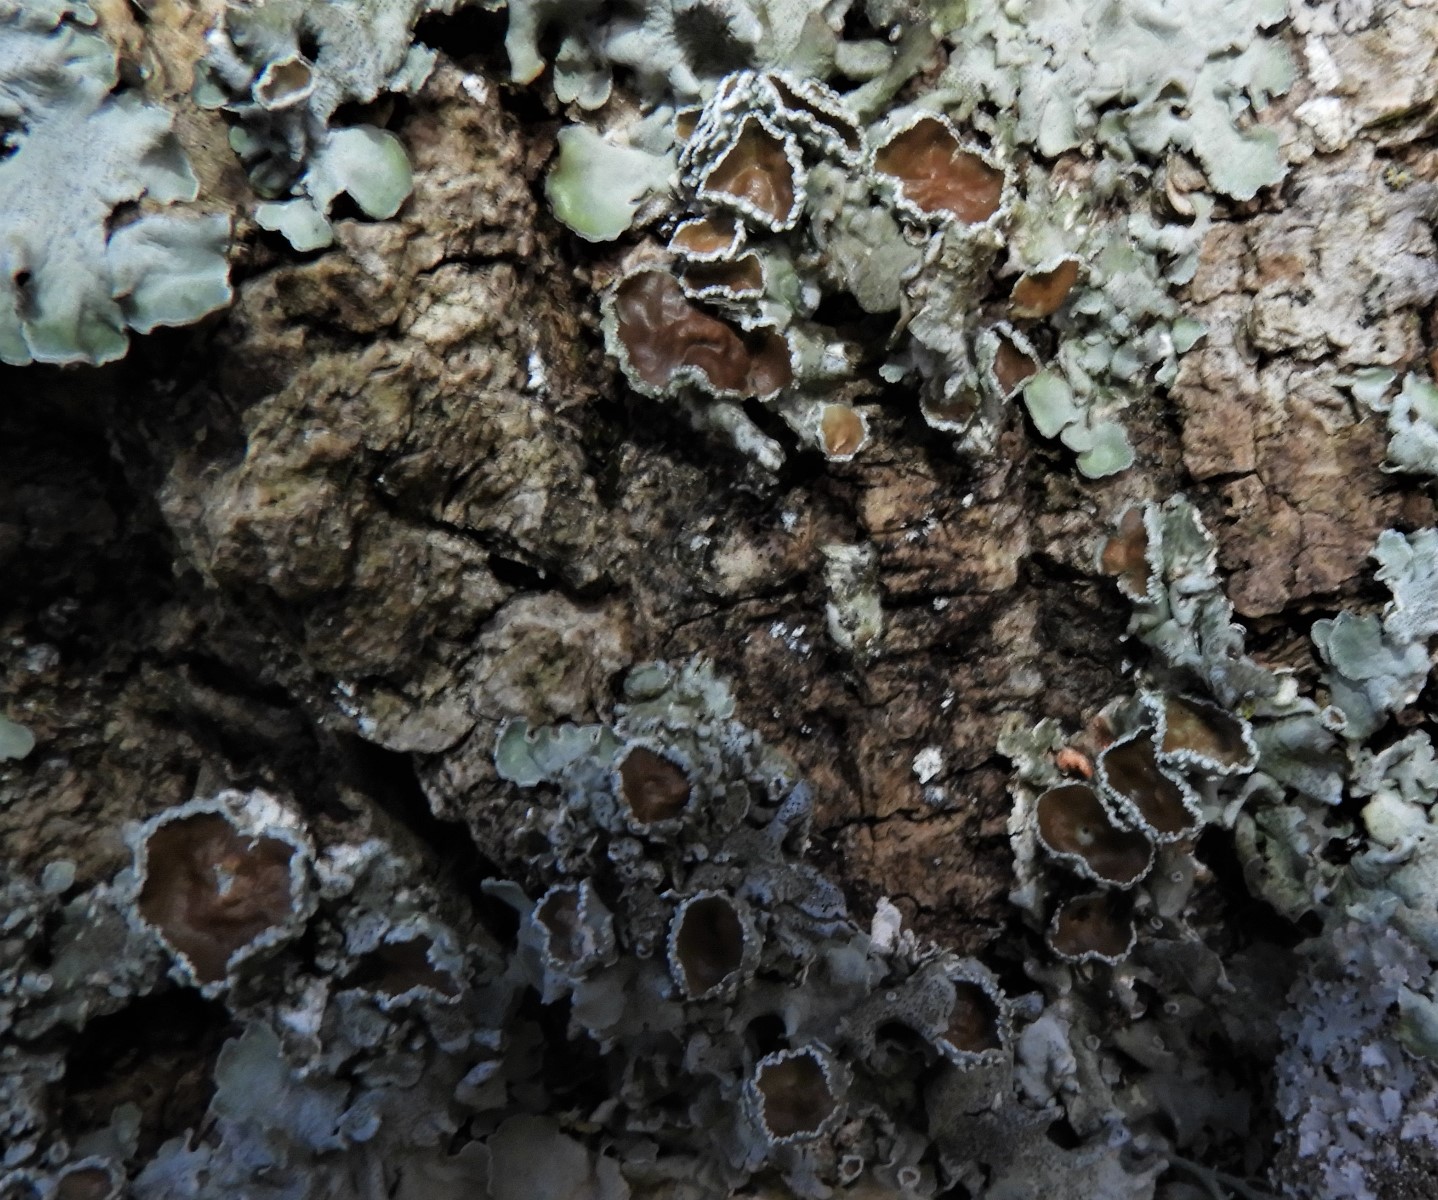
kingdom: Fungi
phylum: Ascomycota
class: Lecanoromycetes
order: Lecanorales
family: Parmeliaceae
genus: Pleurosticta
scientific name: Pleurosticta acetabulum
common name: stor skållav
